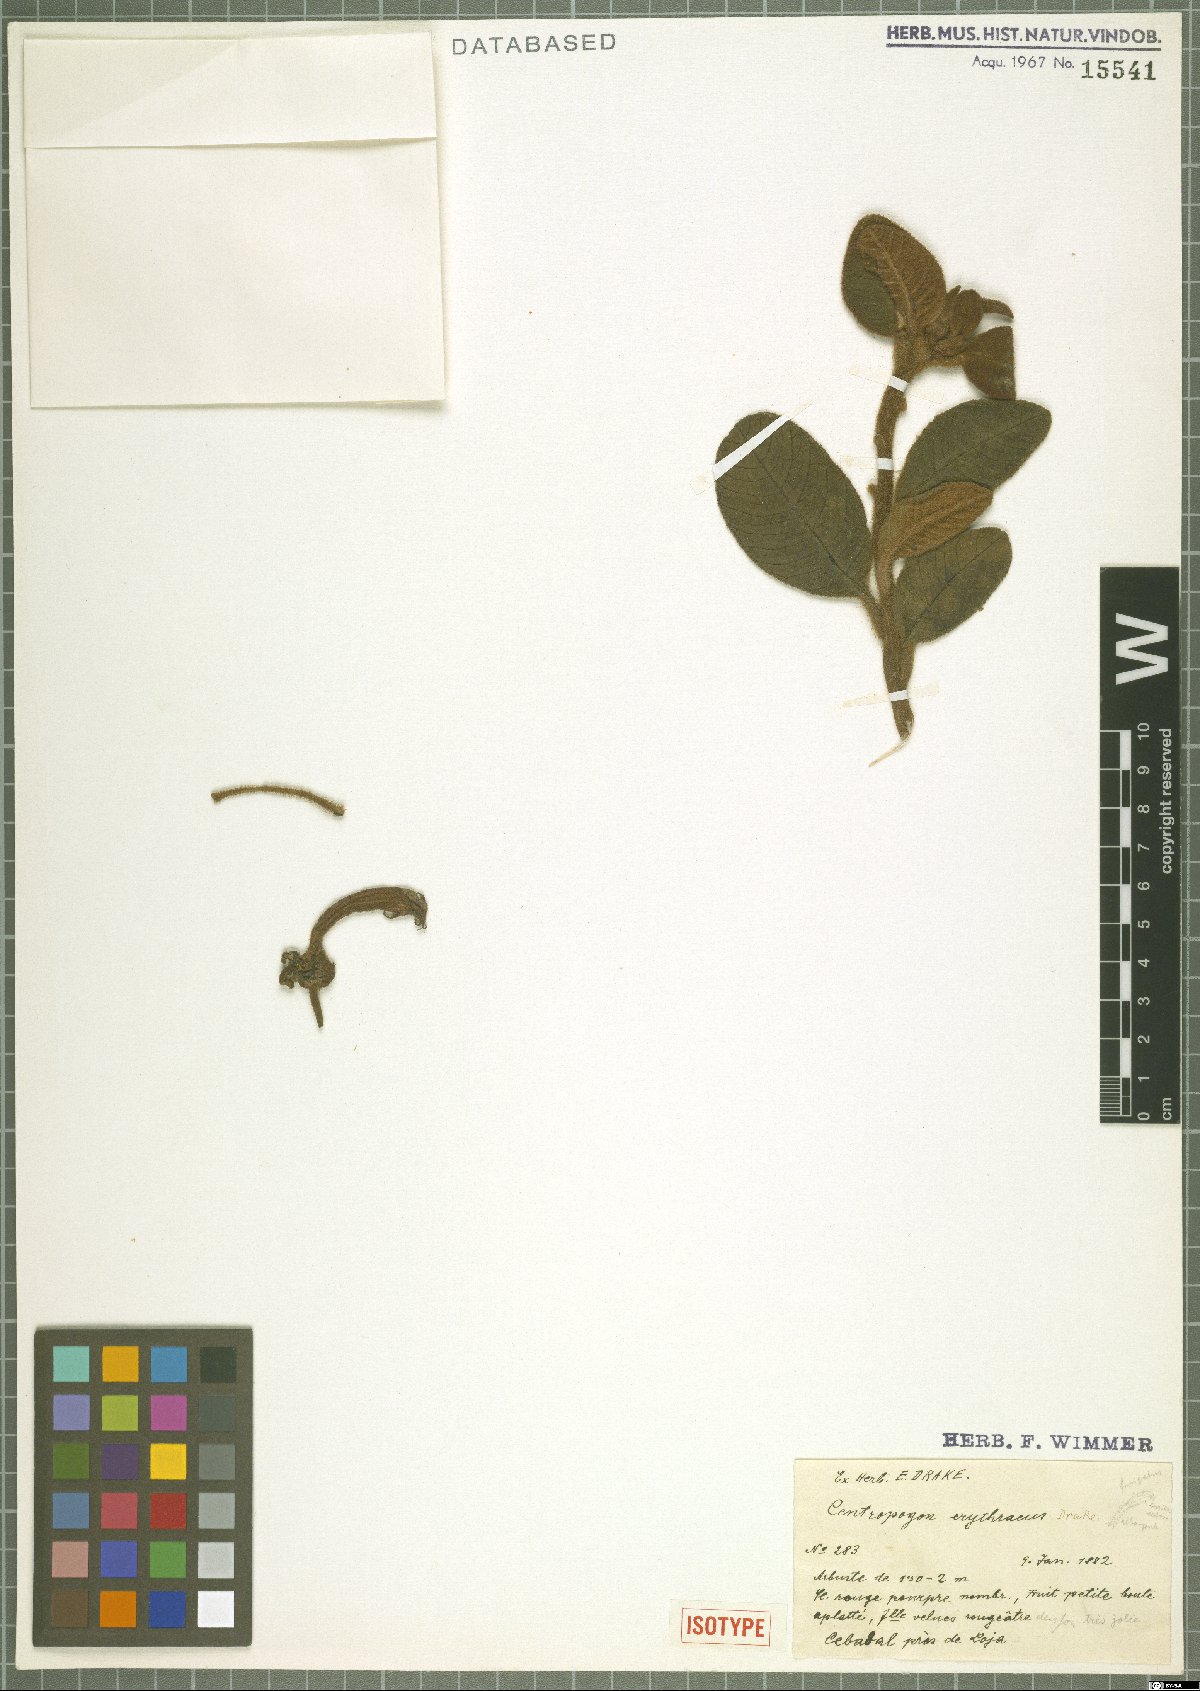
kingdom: Plantae
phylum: Tracheophyta
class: Magnoliopsida
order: Asterales
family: Campanulaceae
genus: Centropogon
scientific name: Centropogon erythraeus
